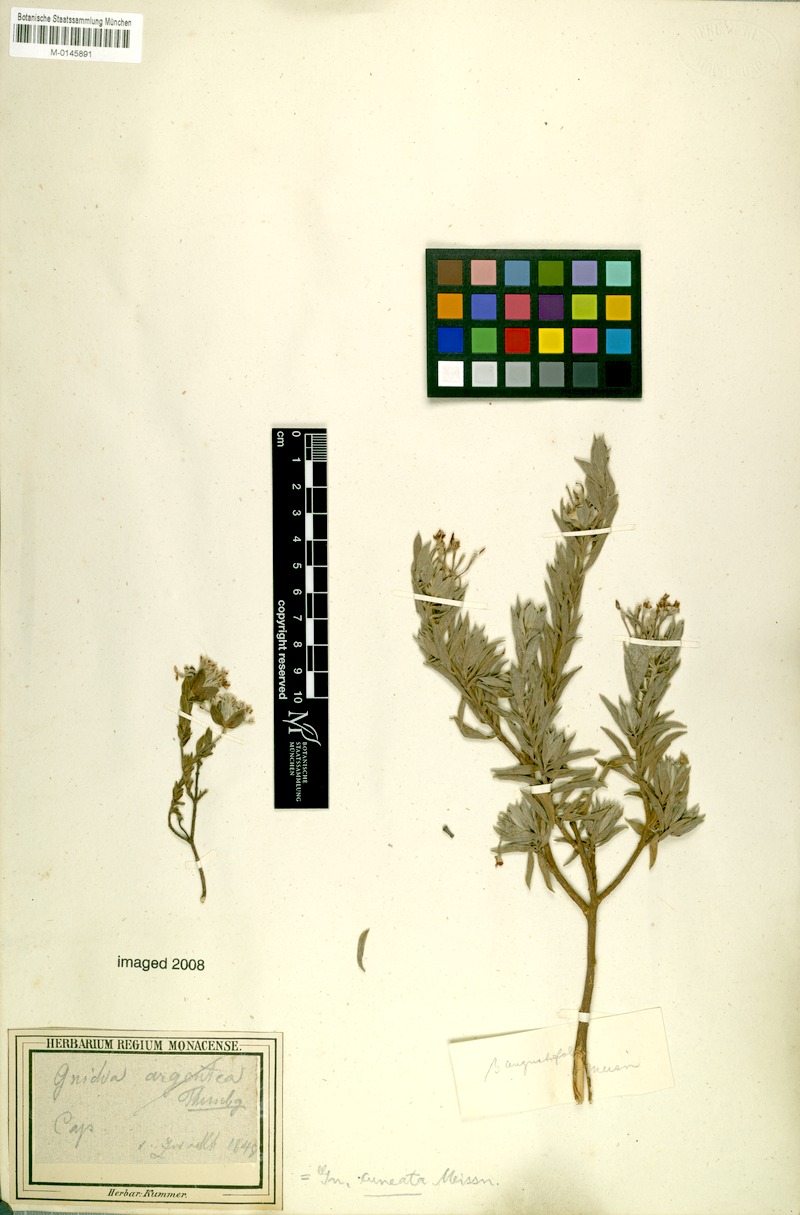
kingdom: Plantae
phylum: Tracheophyta
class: Magnoliopsida
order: Malvales
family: Thymelaeaceae
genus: Gnidia
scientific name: Gnidia cuneata
